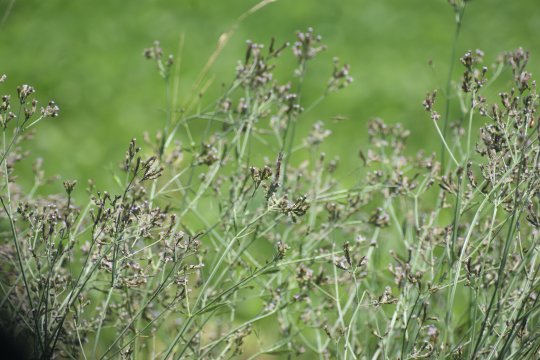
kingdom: Animalia
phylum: Arthropoda
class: Insecta
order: Lepidoptera
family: Nymphalidae
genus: Vanessa
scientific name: Vanessa virginiensis
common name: American Lady
